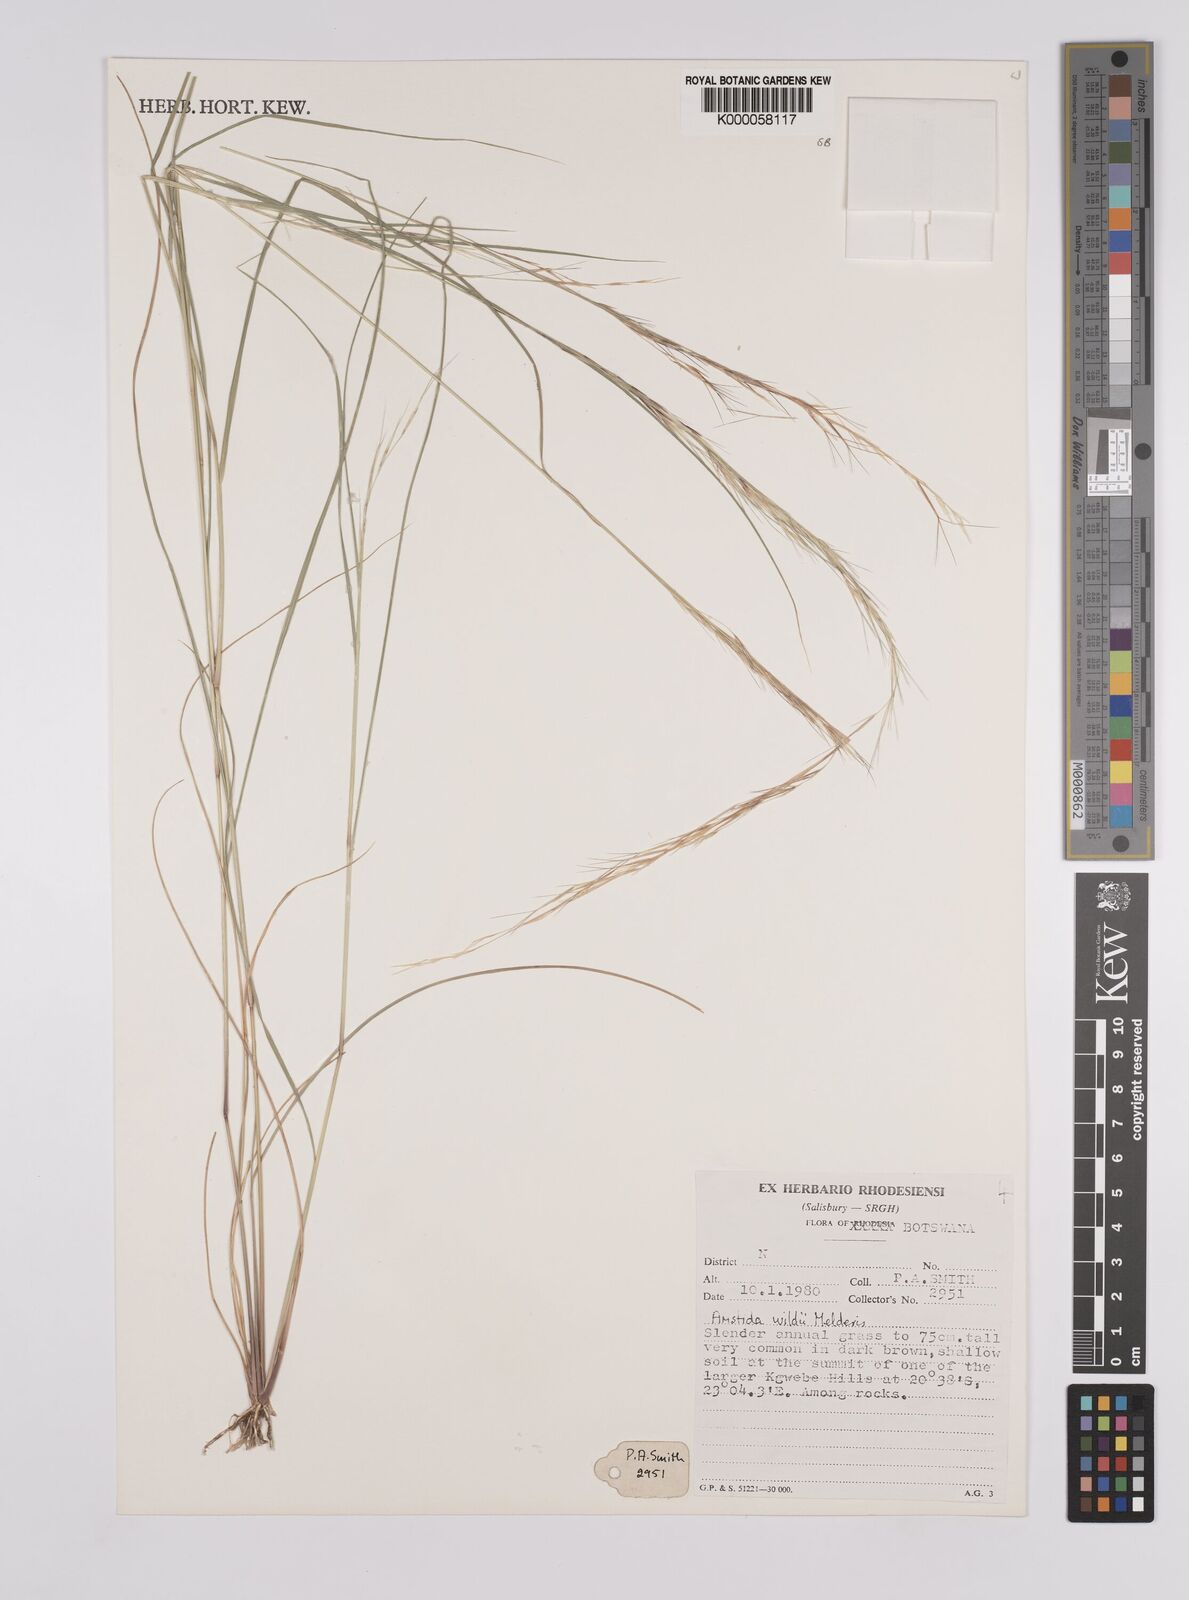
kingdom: Plantae
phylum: Tracheophyta
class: Liliopsida
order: Poales
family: Poaceae
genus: Aristida
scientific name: Aristida wildii
